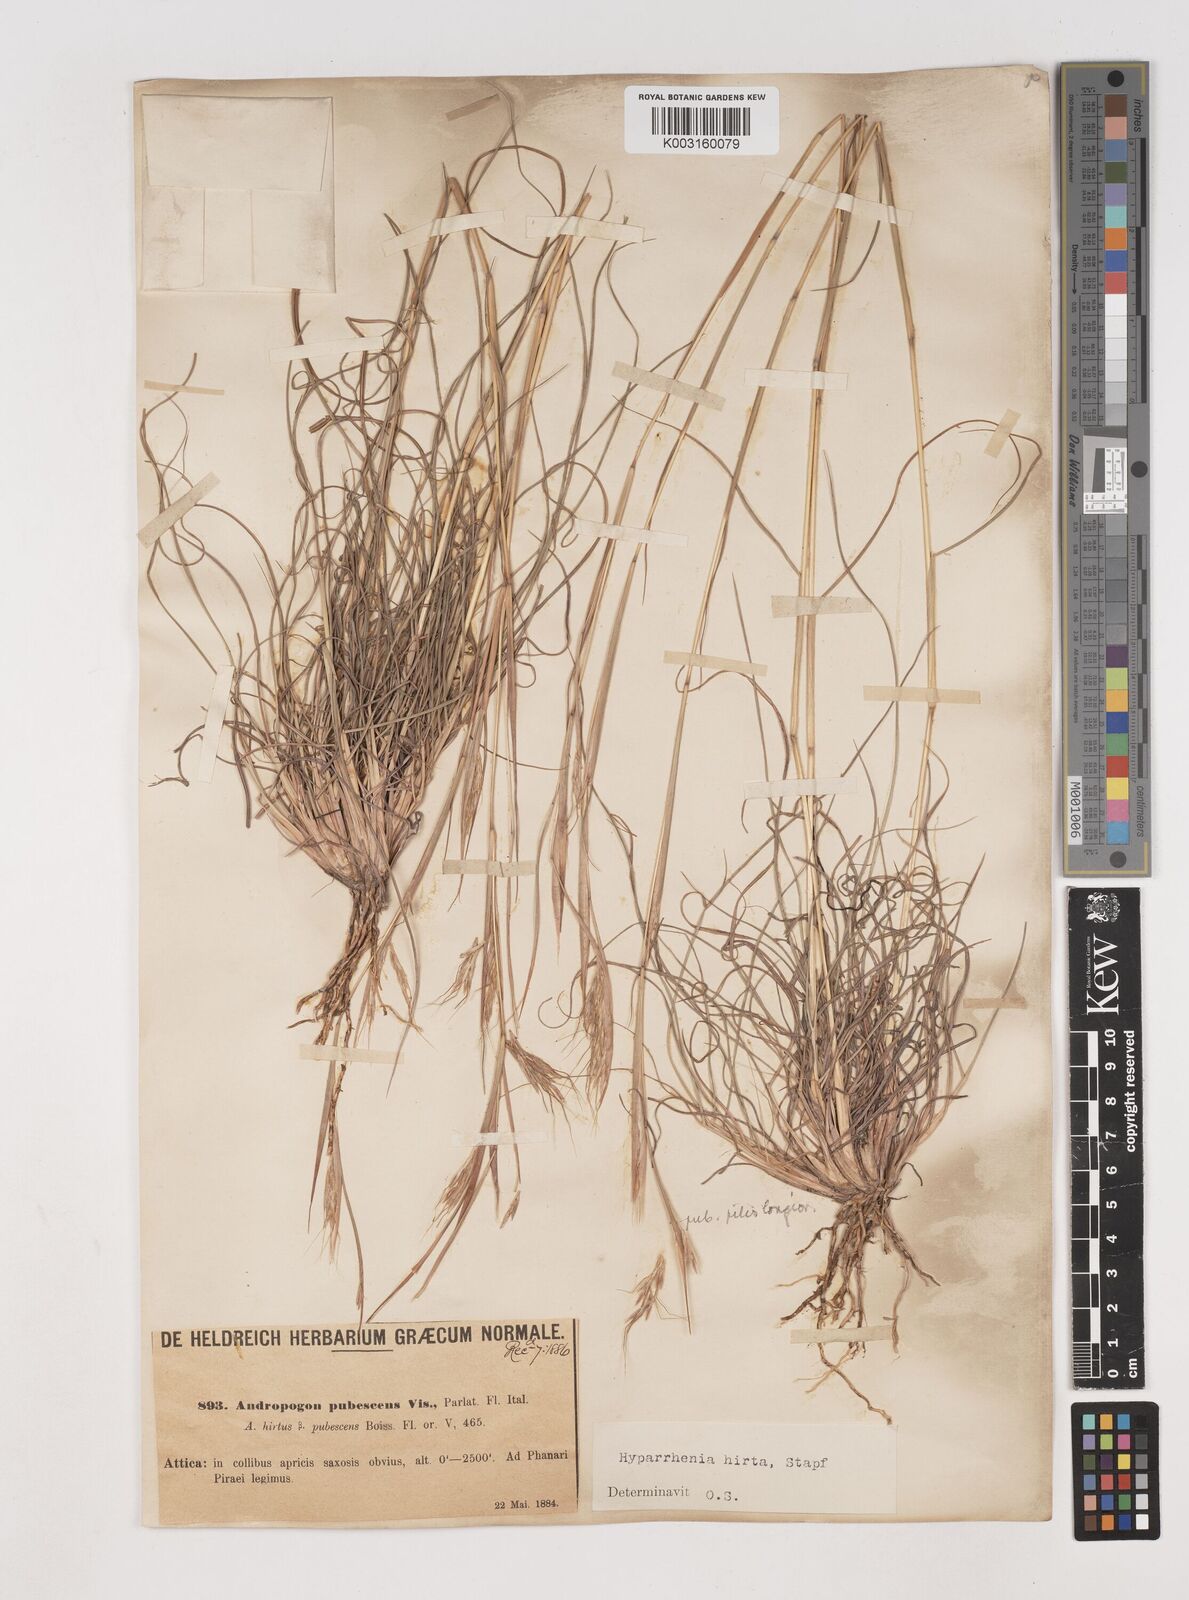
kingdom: Plantae
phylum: Tracheophyta
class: Liliopsida
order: Poales
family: Poaceae
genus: Hyparrhenia
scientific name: Hyparrhenia hirta
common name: Thatching grass
